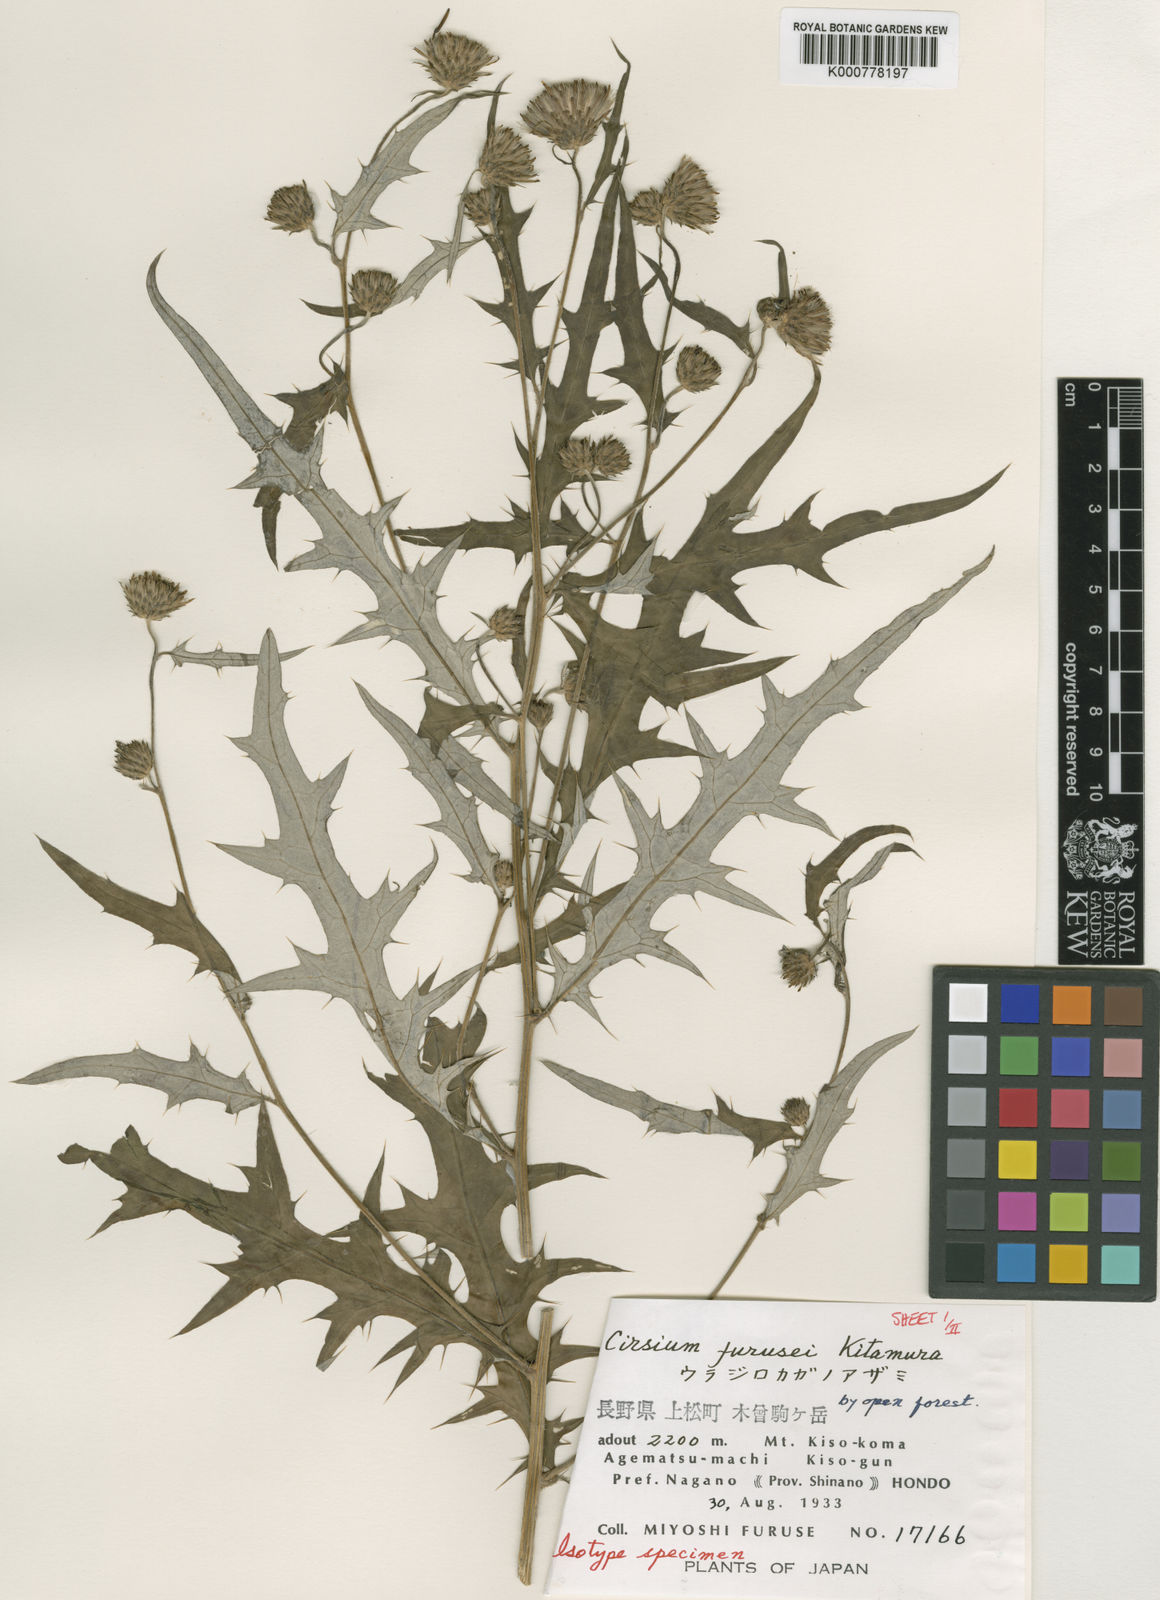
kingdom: Plantae
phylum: Tracheophyta
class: Magnoliopsida
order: Asterales
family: Asteraceae
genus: Cirsium
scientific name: Cirsium furusei
